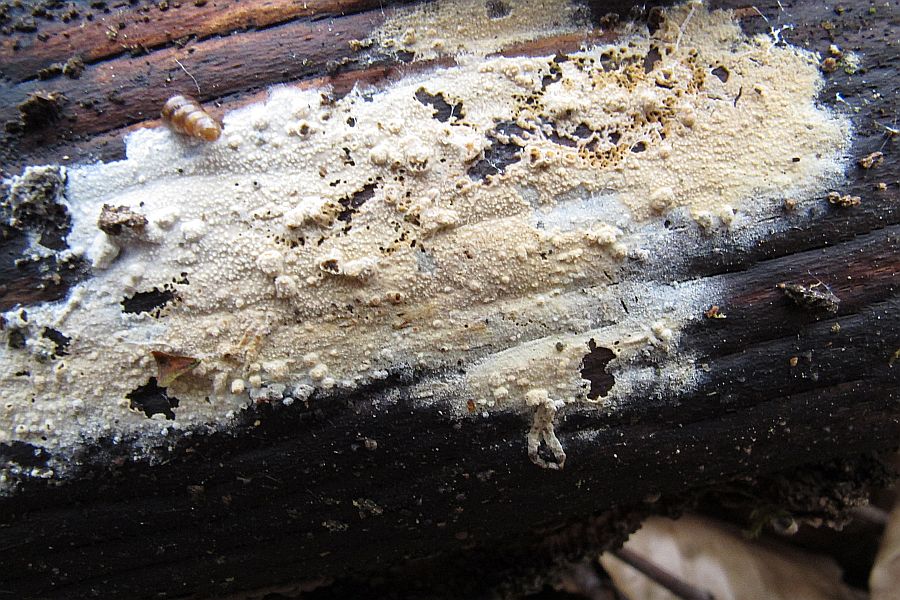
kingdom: Fungi
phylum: Basidiomycota
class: Agaricomycetes
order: Polyporales
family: Hyphodermataceae
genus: Hyphoderma
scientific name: Hyphoderma setigerum
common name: håret kalkskind
